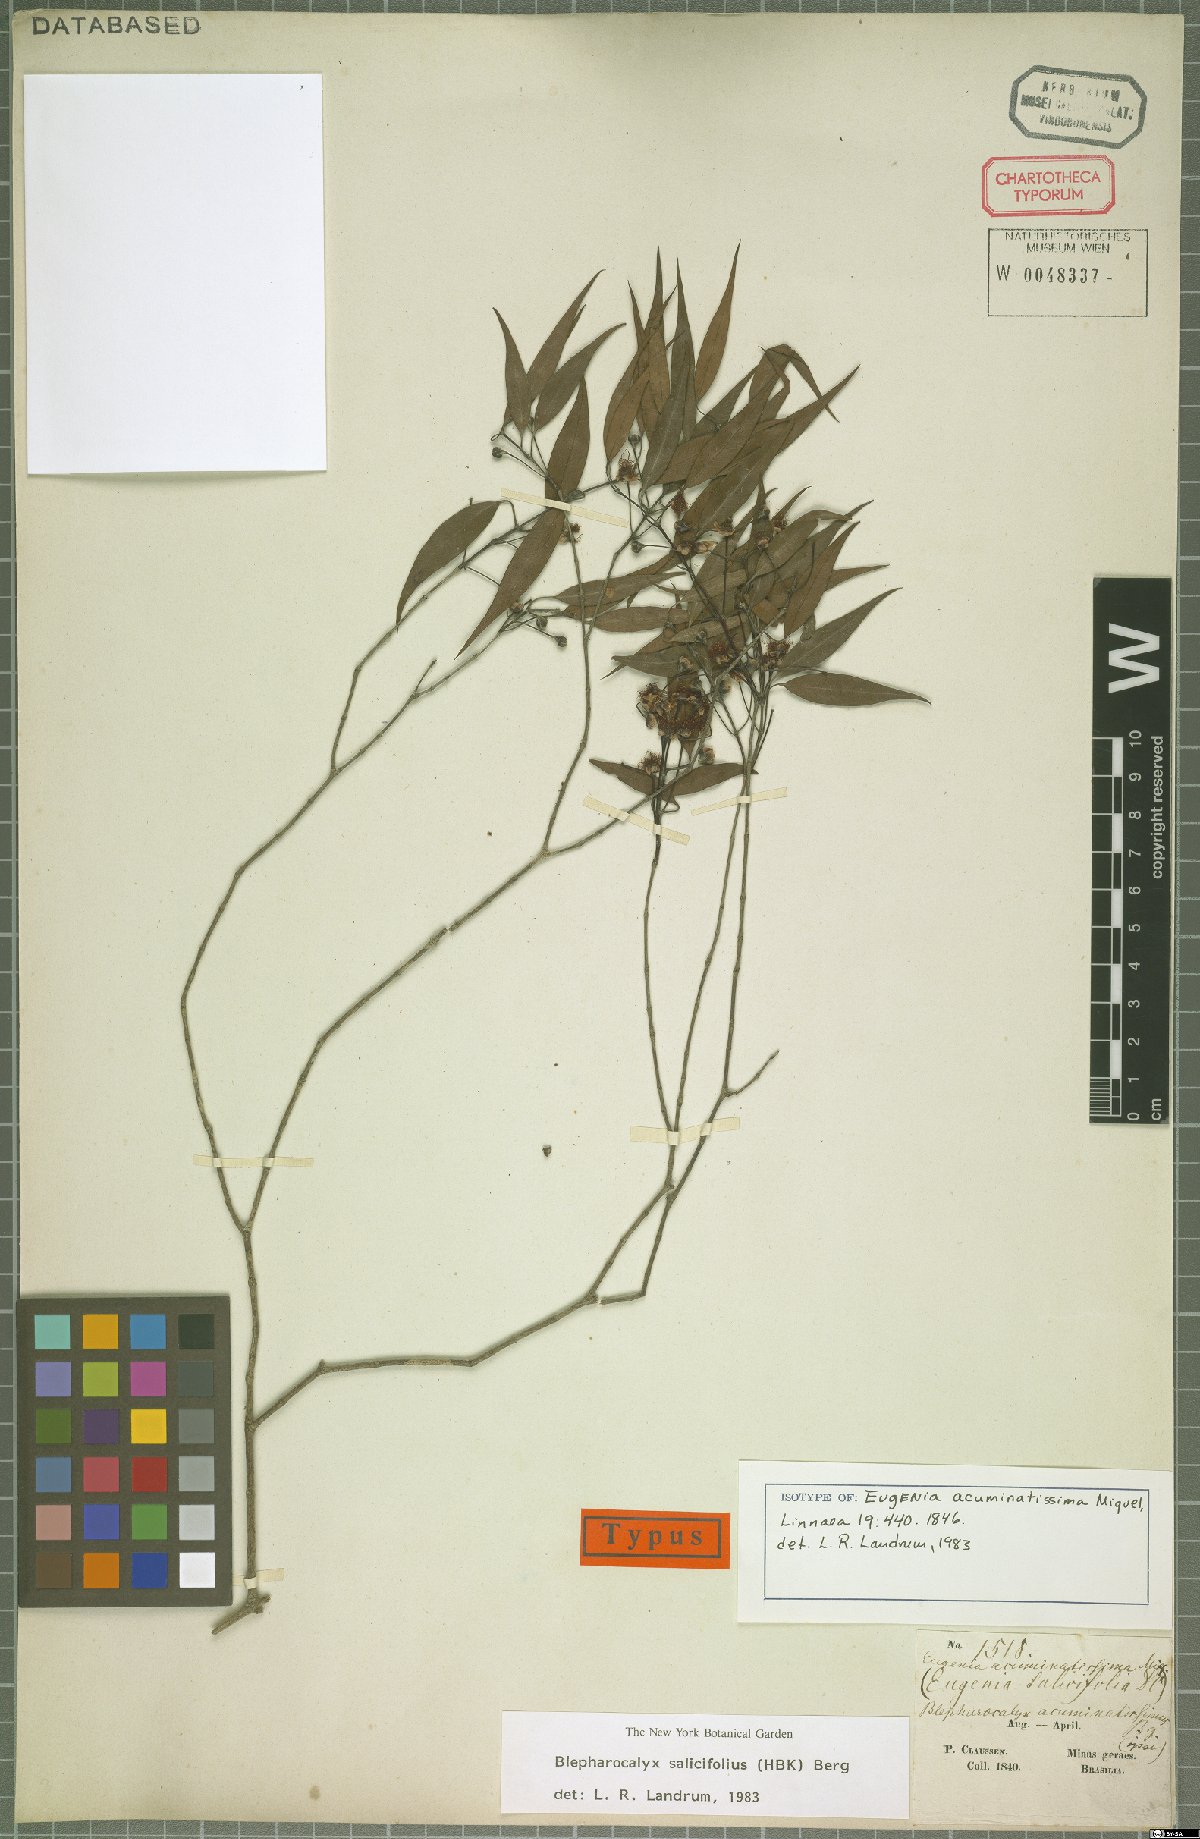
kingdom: Plantae
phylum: Tracheophyta
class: Magnoliopsida
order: Myrtales
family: Myrtaceae
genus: Blepharocalyx
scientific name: Blepharocalyx salicifolius
